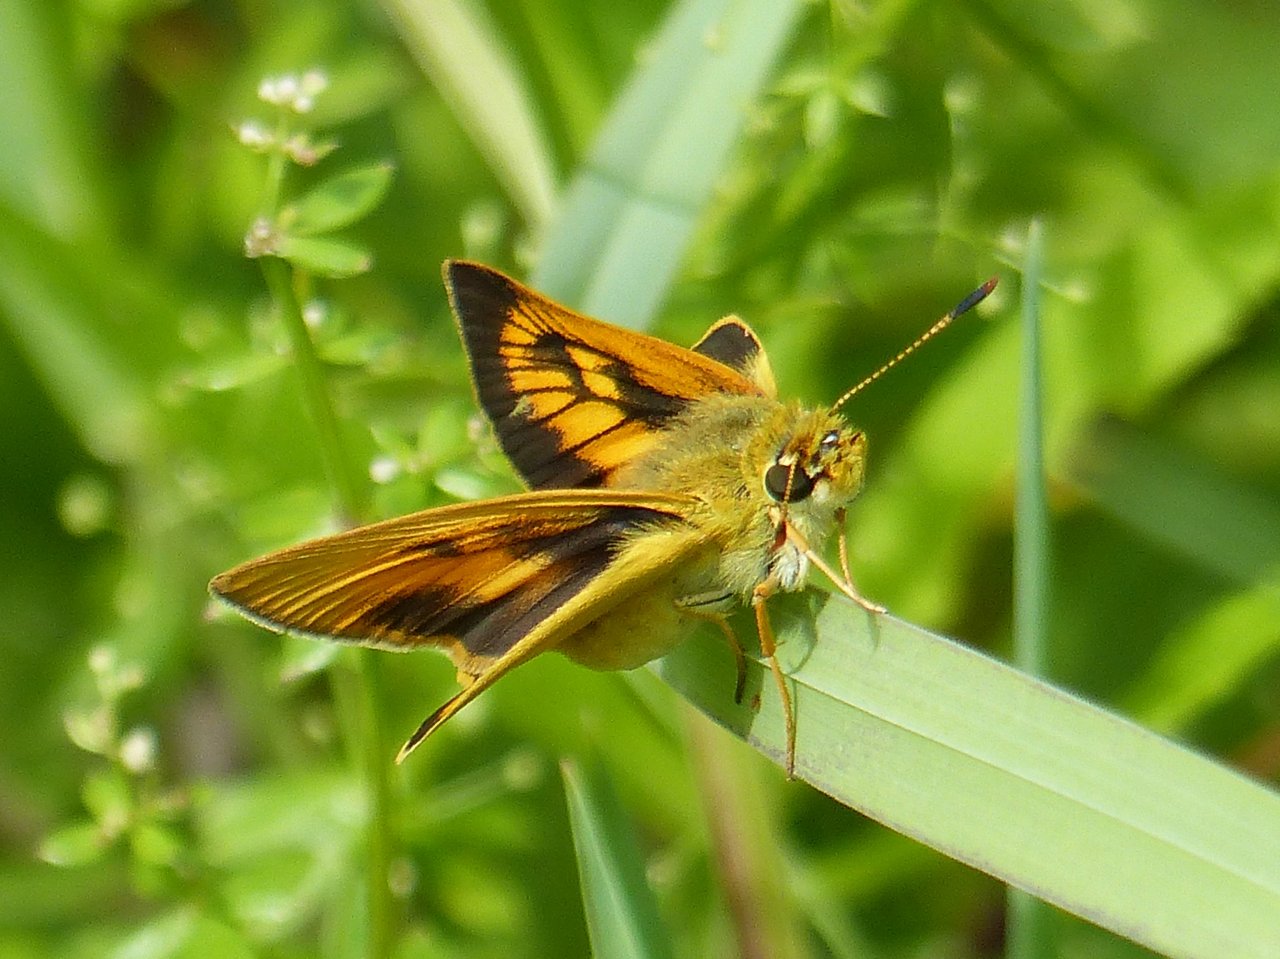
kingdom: Animalia
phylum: Arthropoda
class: Insecta
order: Lepidoptera
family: Hesperiidae
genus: Atrytone
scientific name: Atrytone delaware
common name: Delaware Skipper
